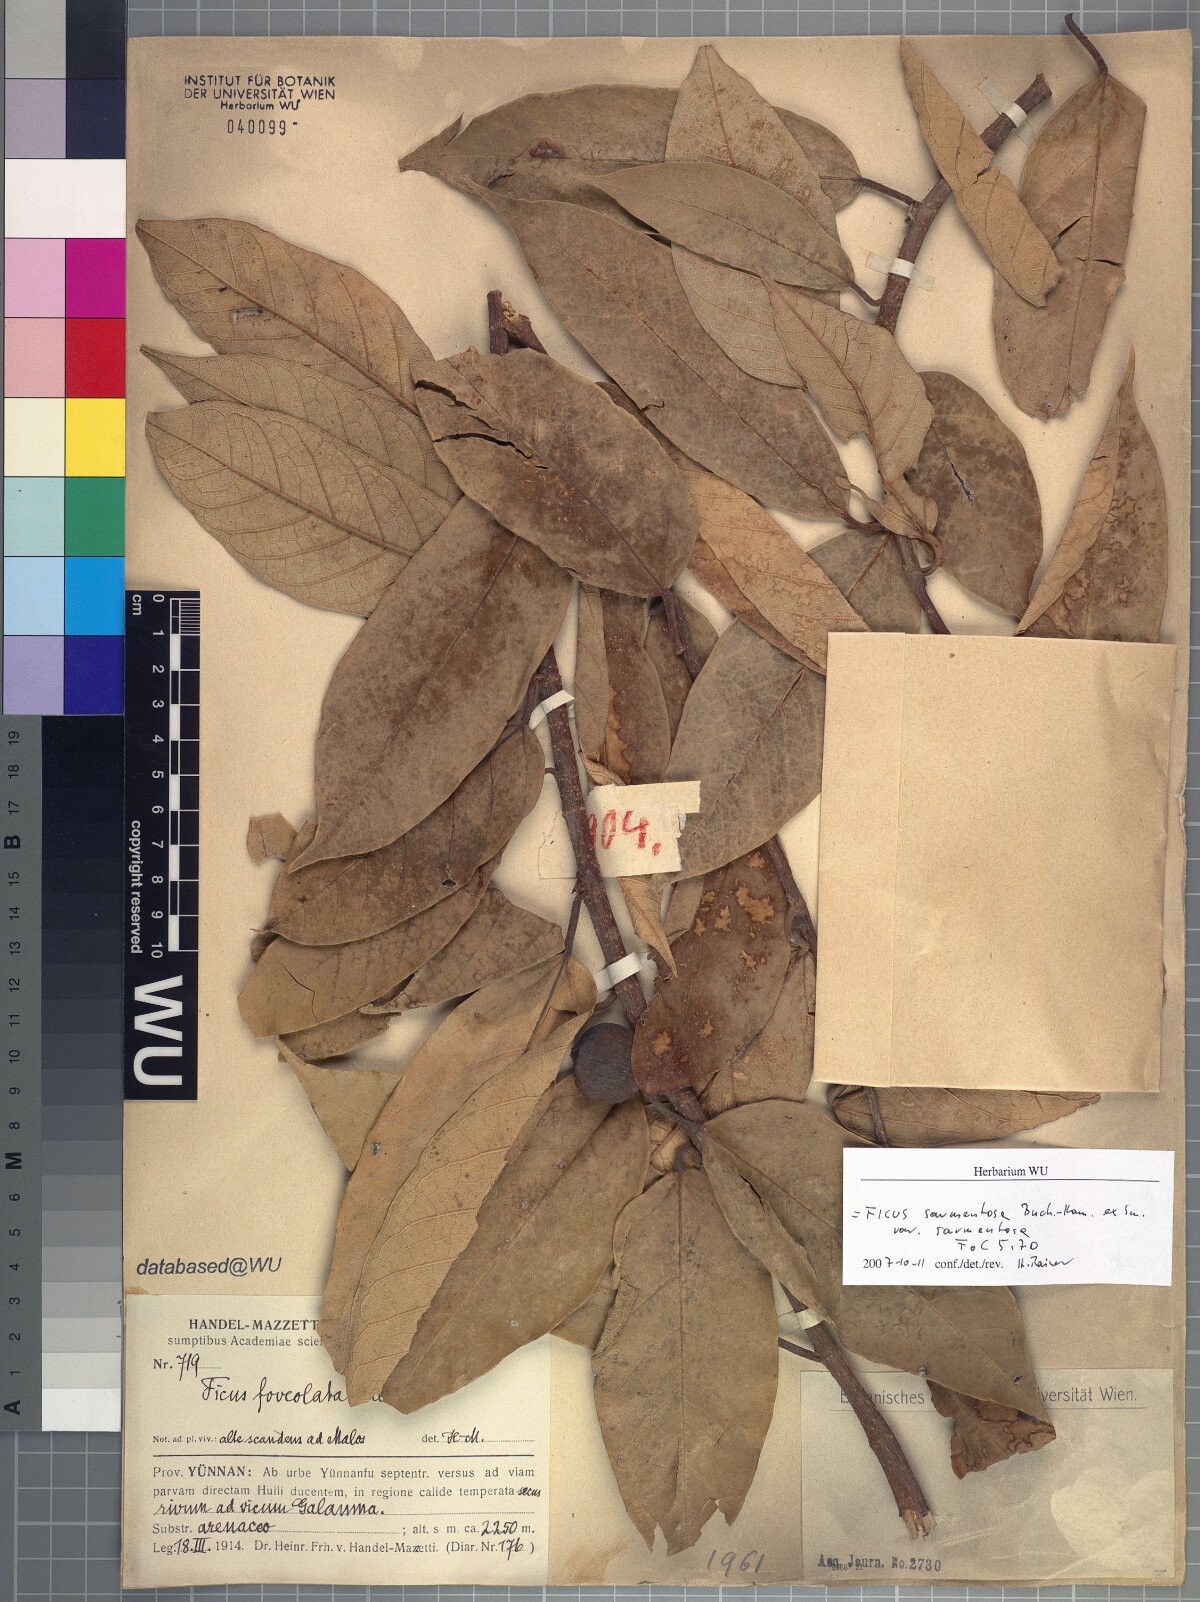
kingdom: Plantae
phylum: Tracheophyta
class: Magnoliopsida
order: Rosales
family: Moraceae
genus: Ficus
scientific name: Ficus sarmentosa
